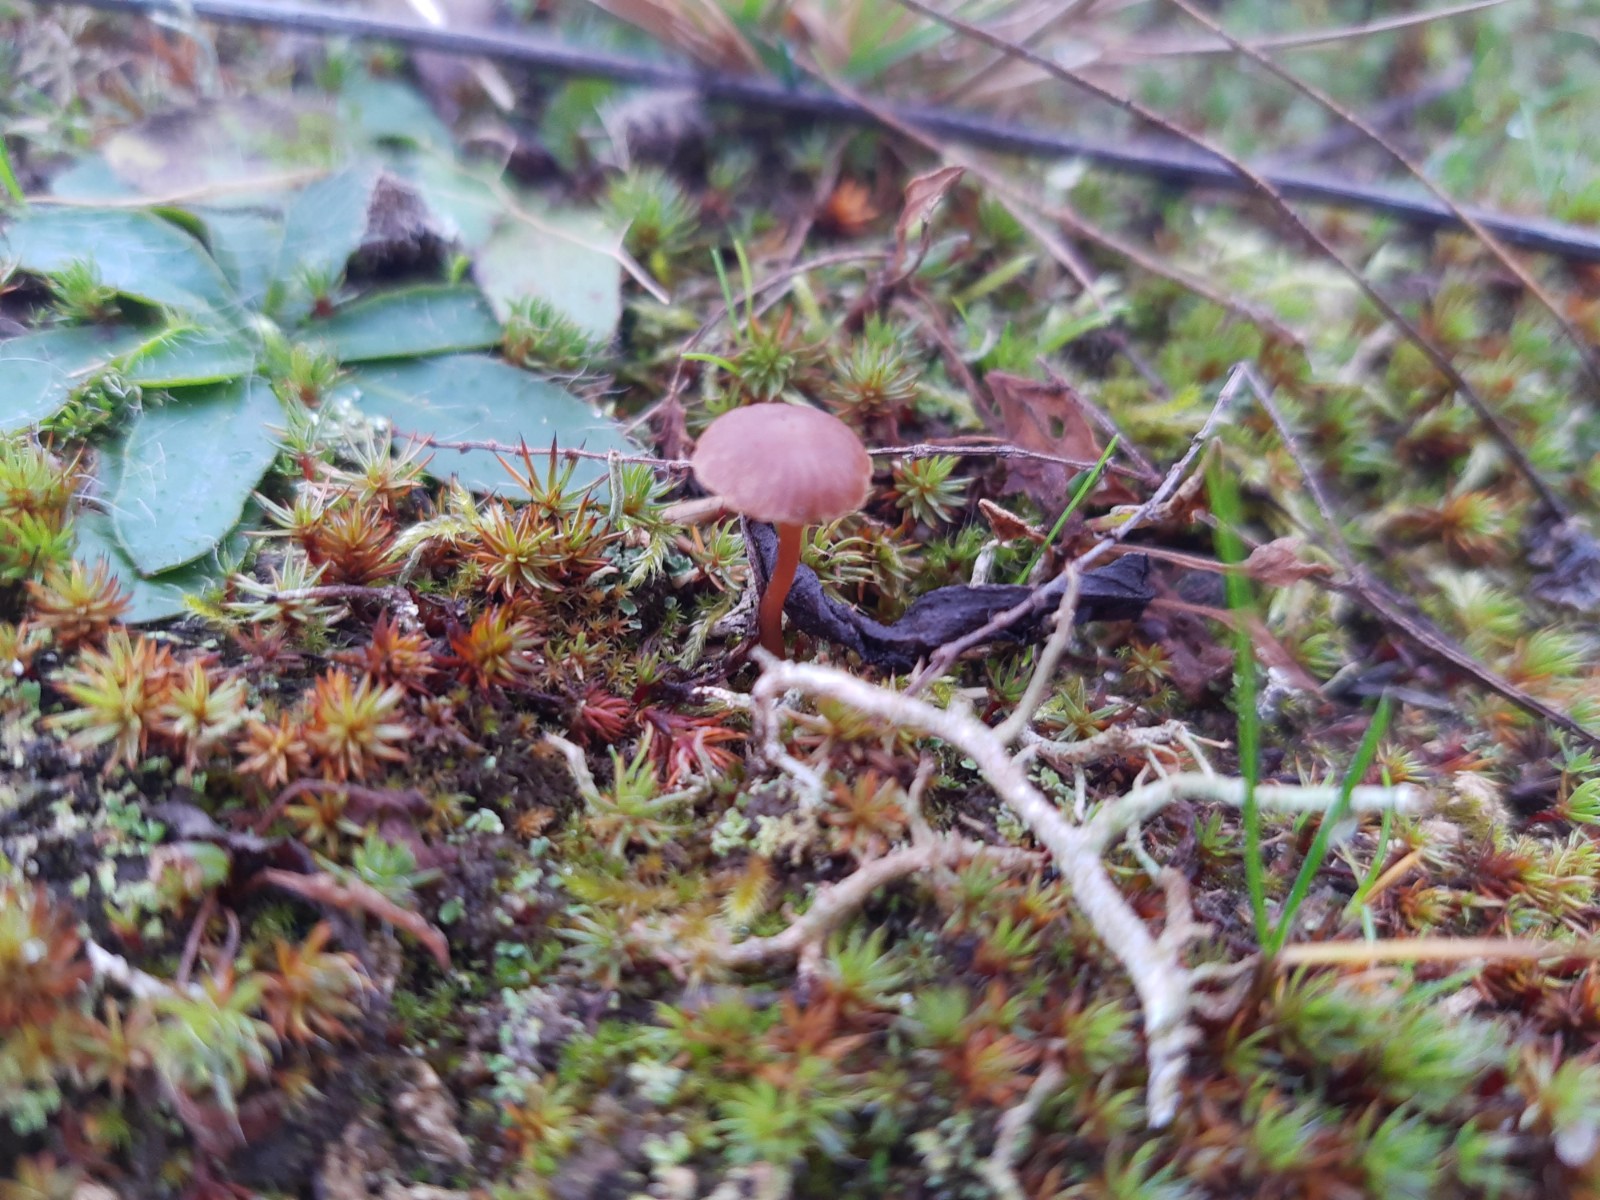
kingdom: Fungi
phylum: Basidiomycota
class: Agaricomycetes
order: Agaricales
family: Strophariaceae
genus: Deconica
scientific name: Deconica montana
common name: rødbrun stråhat
